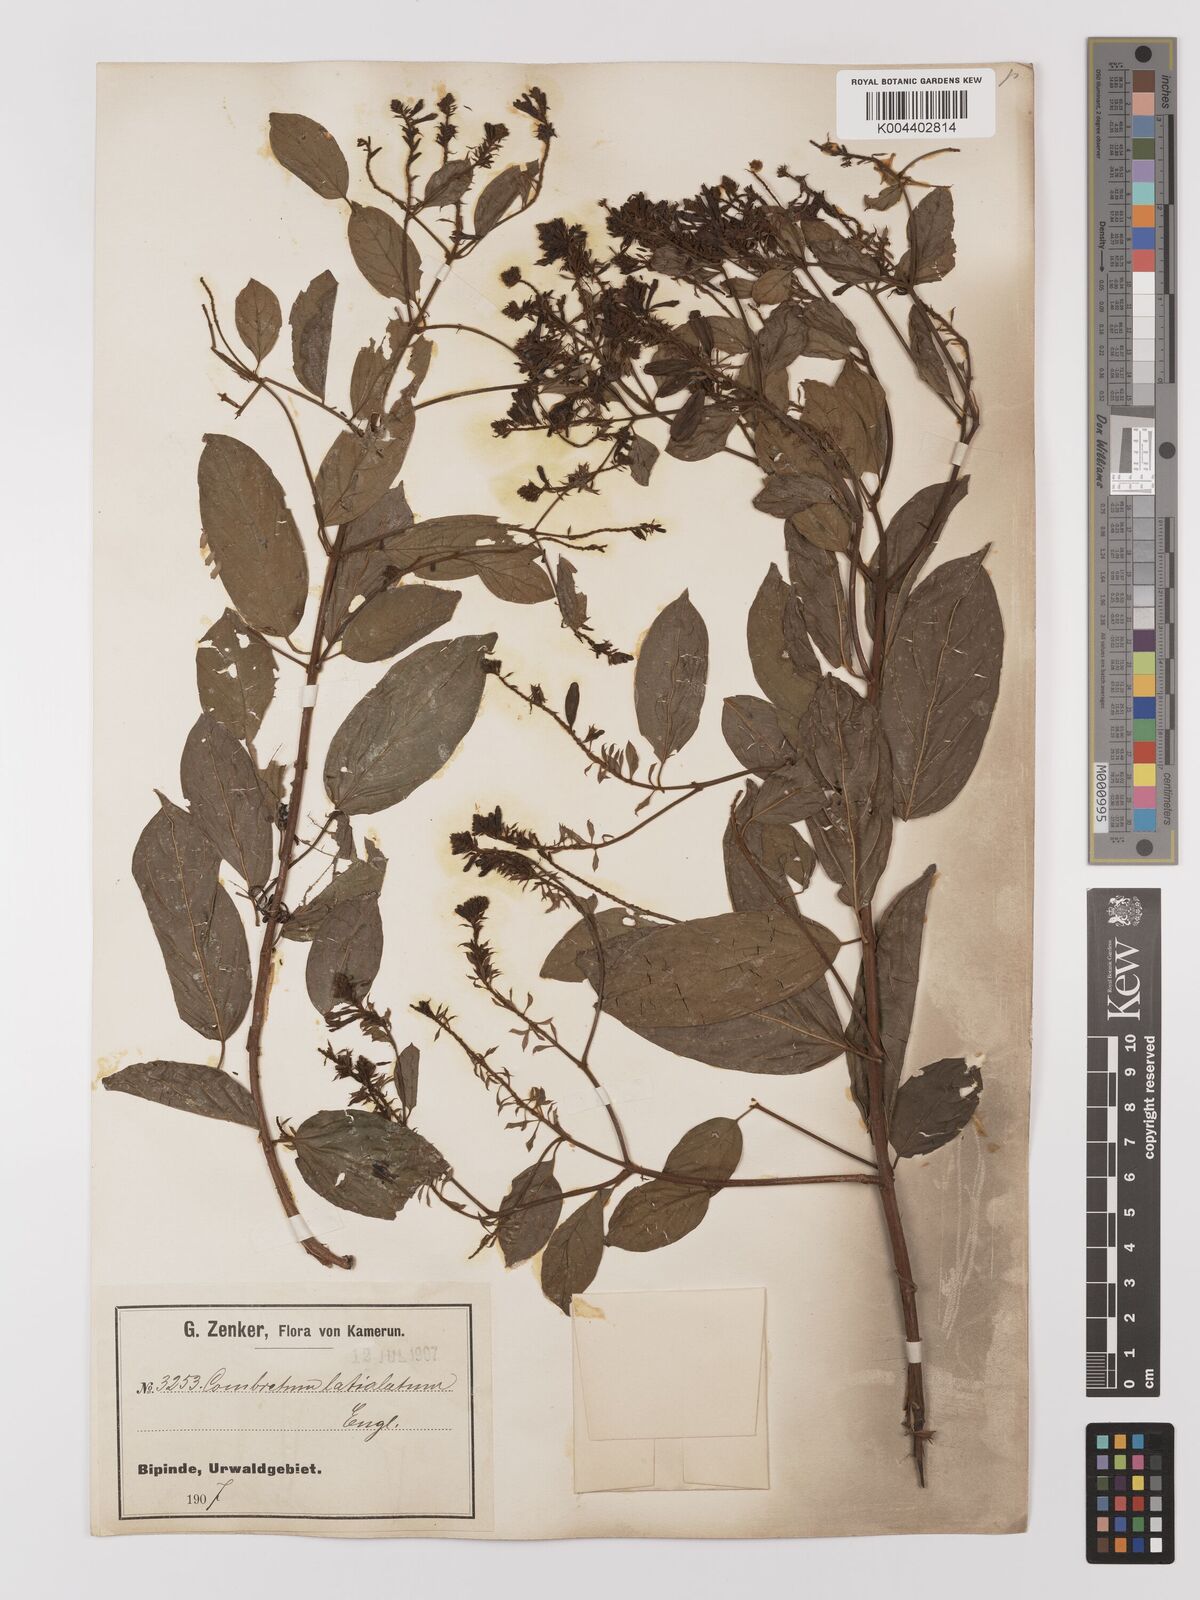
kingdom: Plantae
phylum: Tracheophyta
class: Magnoliopsida
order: Myrtales
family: Combretaceae
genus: Combretum
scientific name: Combretum latialatum
